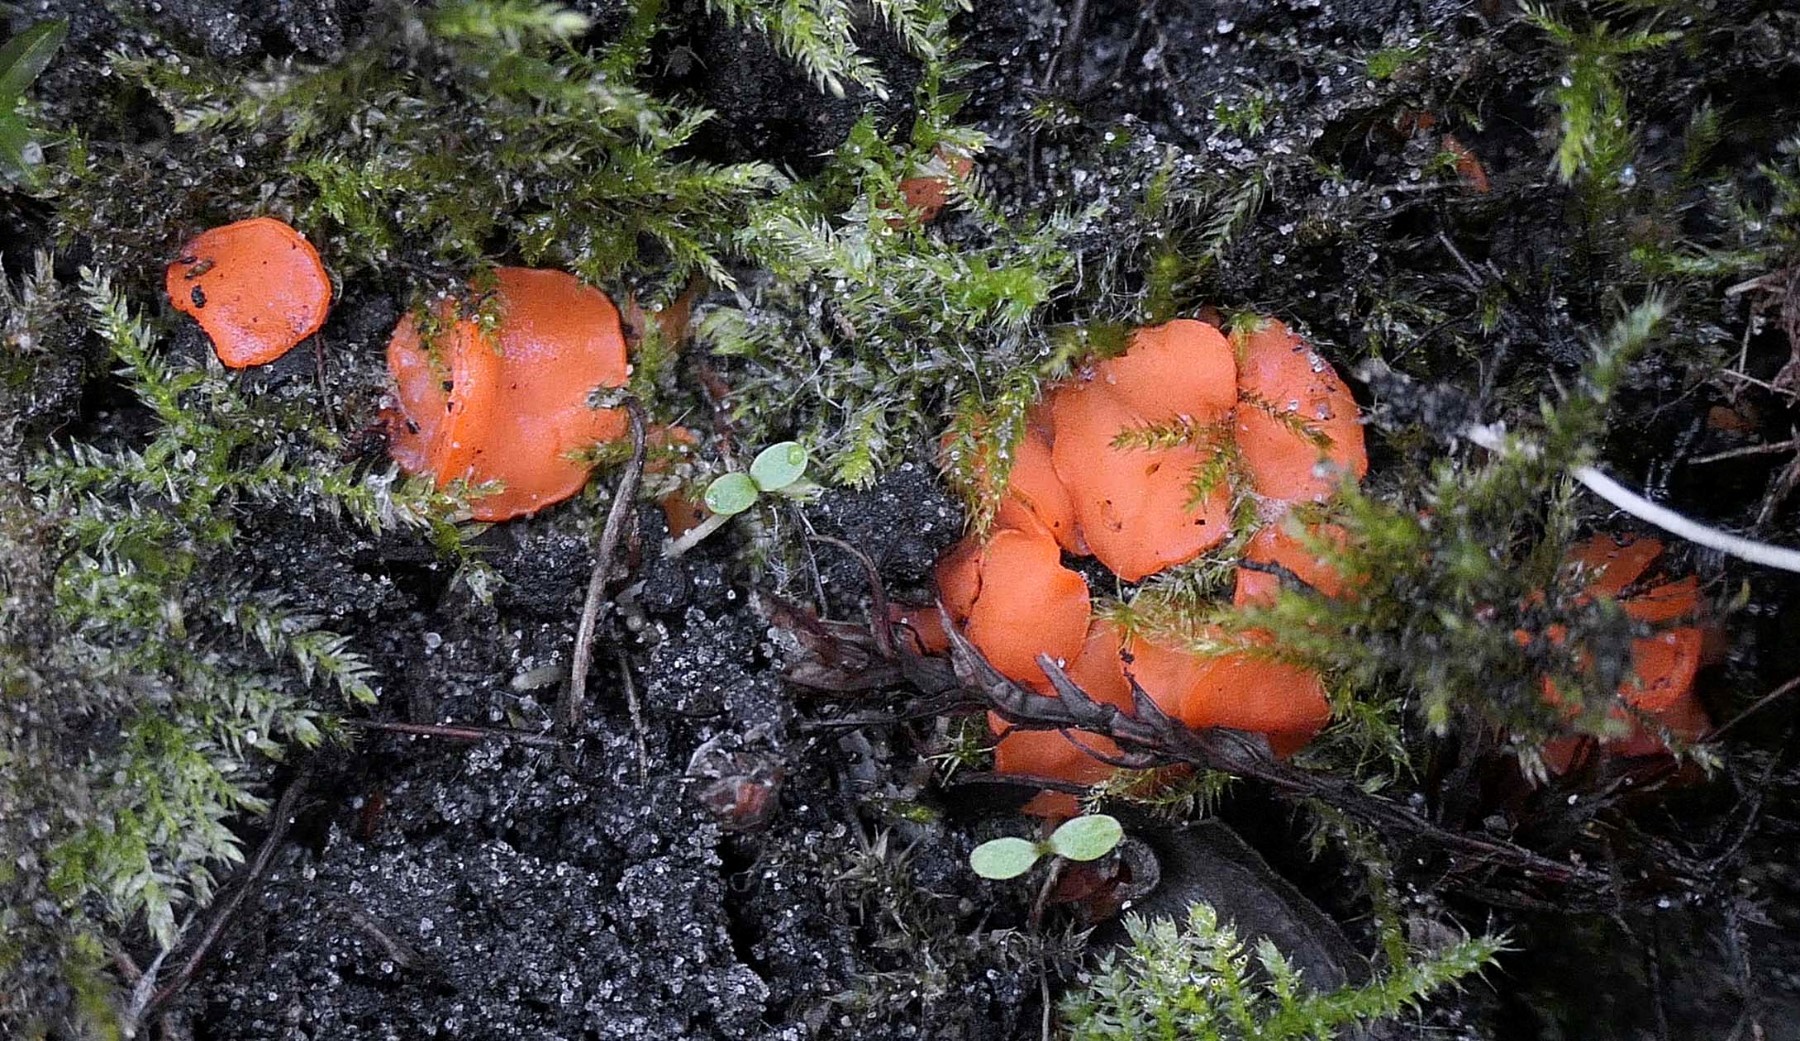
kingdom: Fungi
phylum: Ascomycota
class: Pezizomycetes
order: Pezizales
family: Pulvinulaceae
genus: Pulvinula
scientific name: Pulvinula convexella
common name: stor pudebæger
